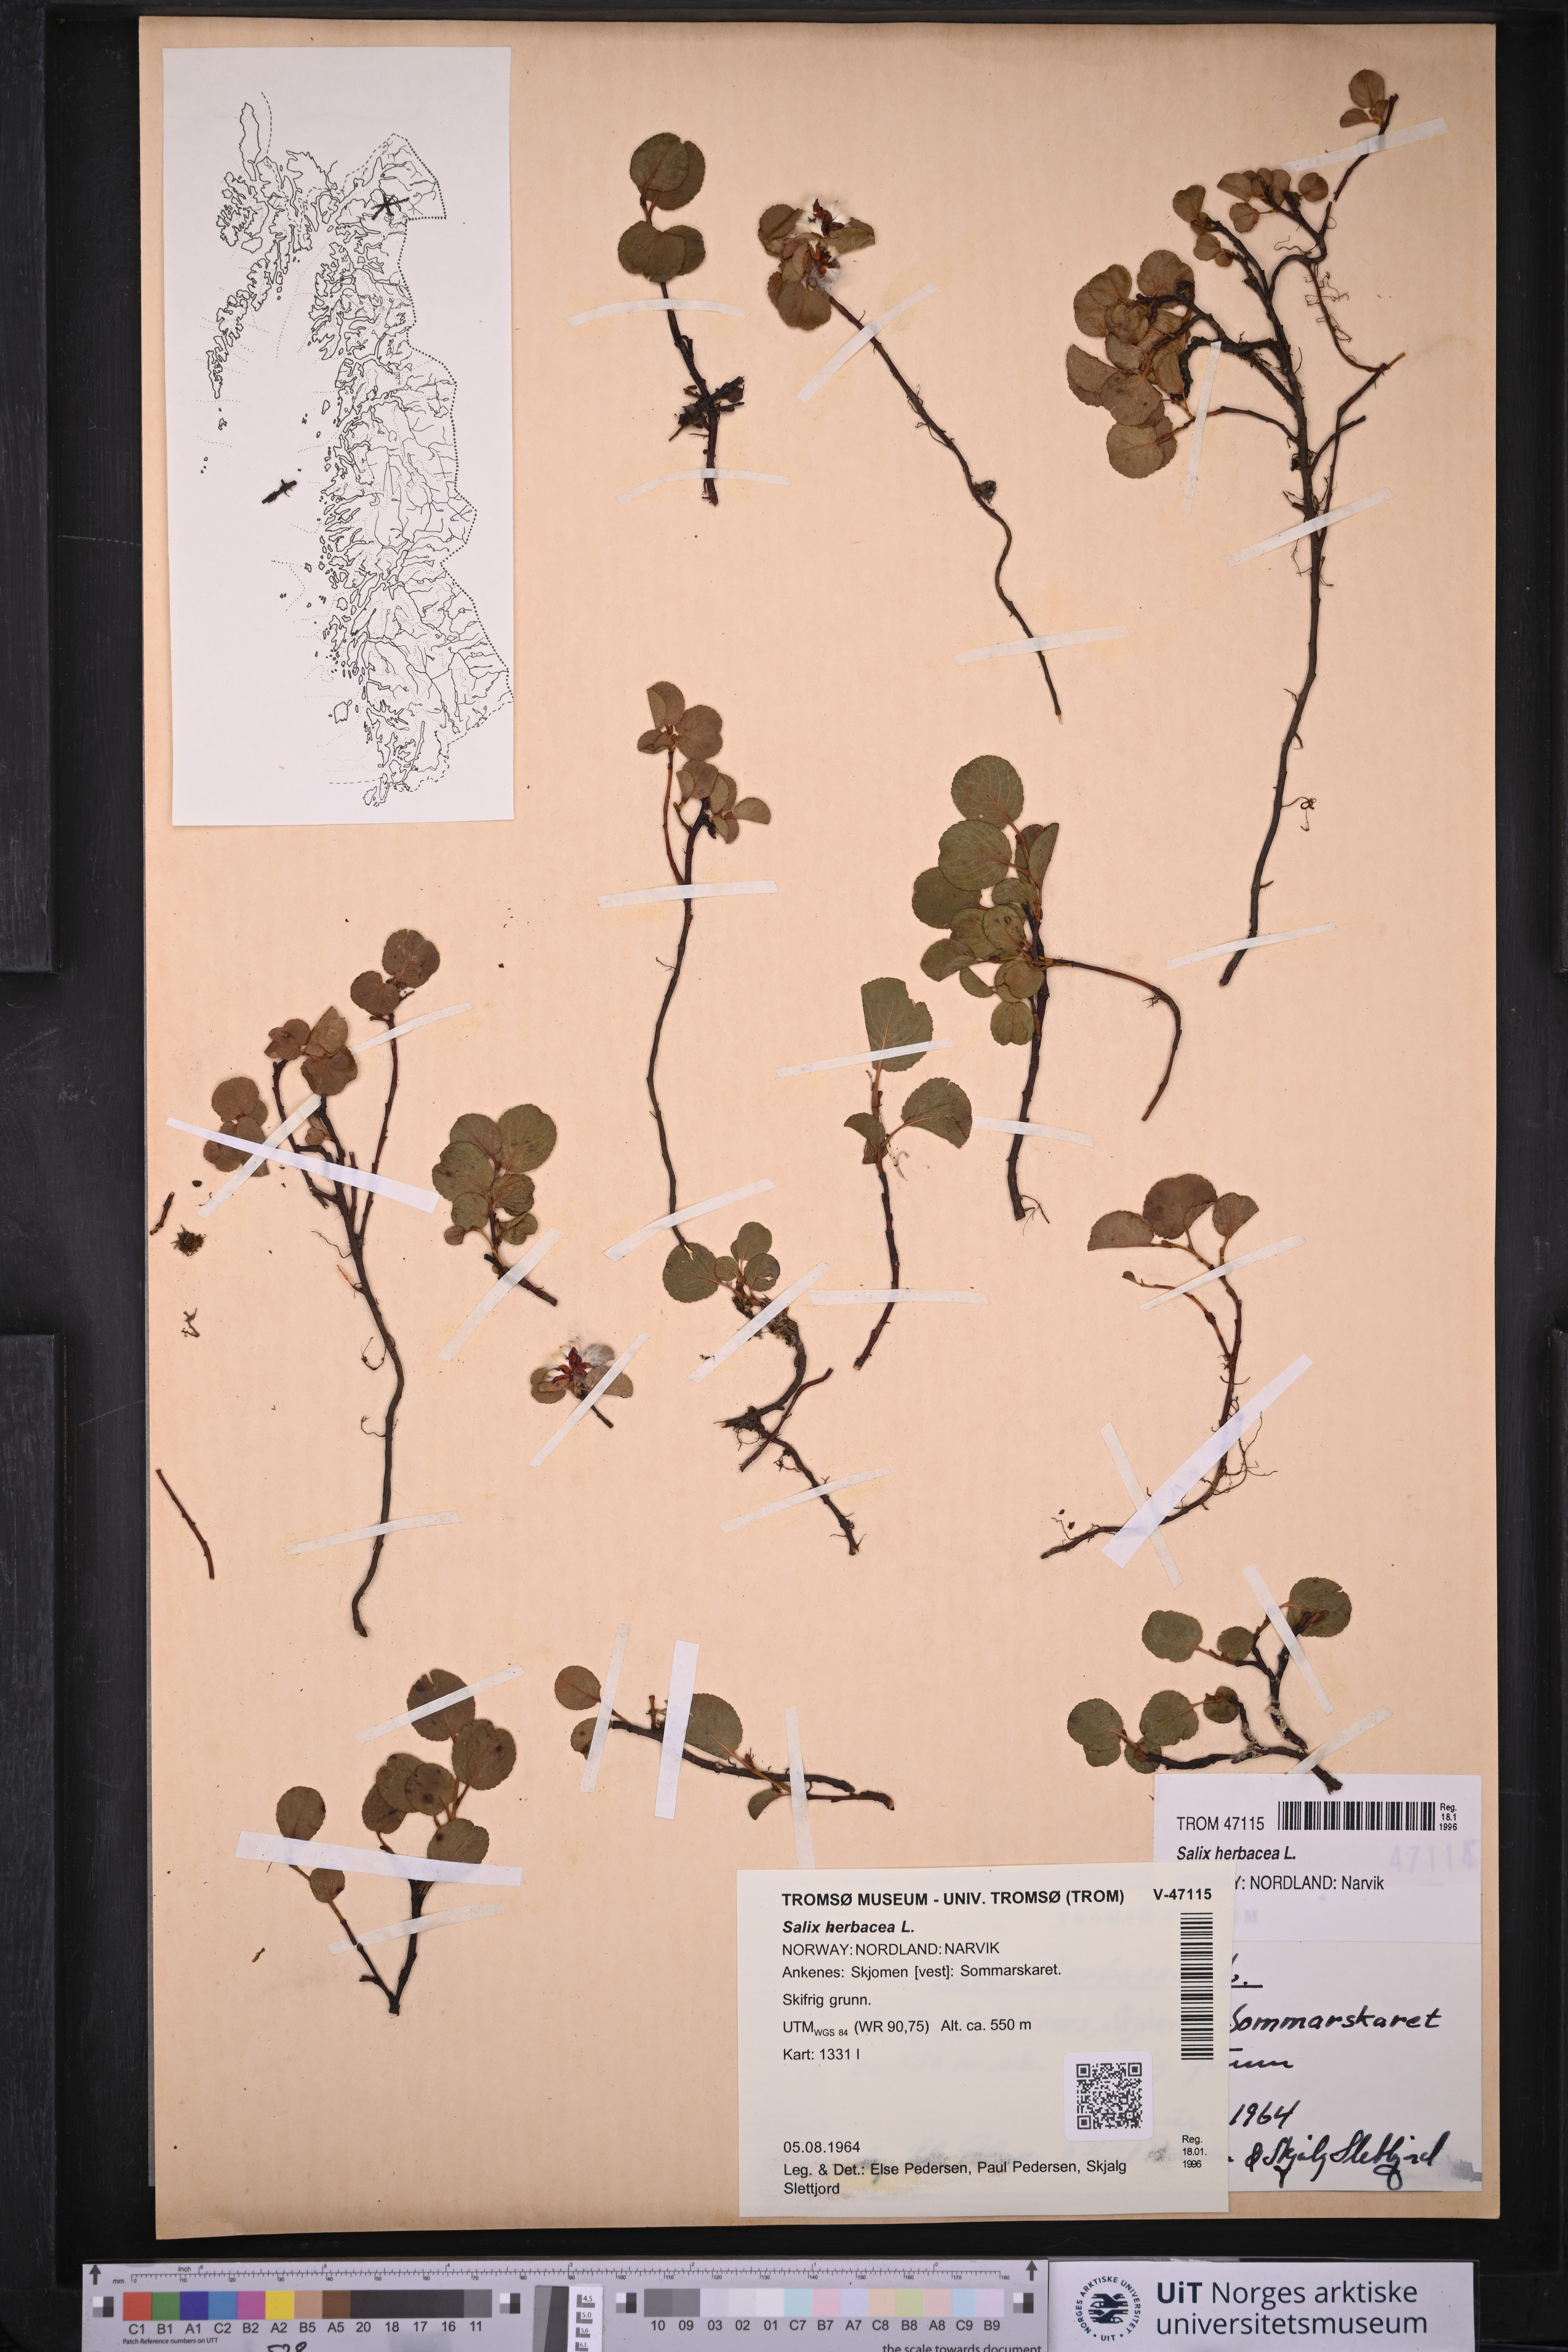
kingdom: Plantae
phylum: Tracheophyta
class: Magnoliopsida
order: Malpighiales
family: Salicaceae
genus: Salix
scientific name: Salix herbacea
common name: Dwarf willow
